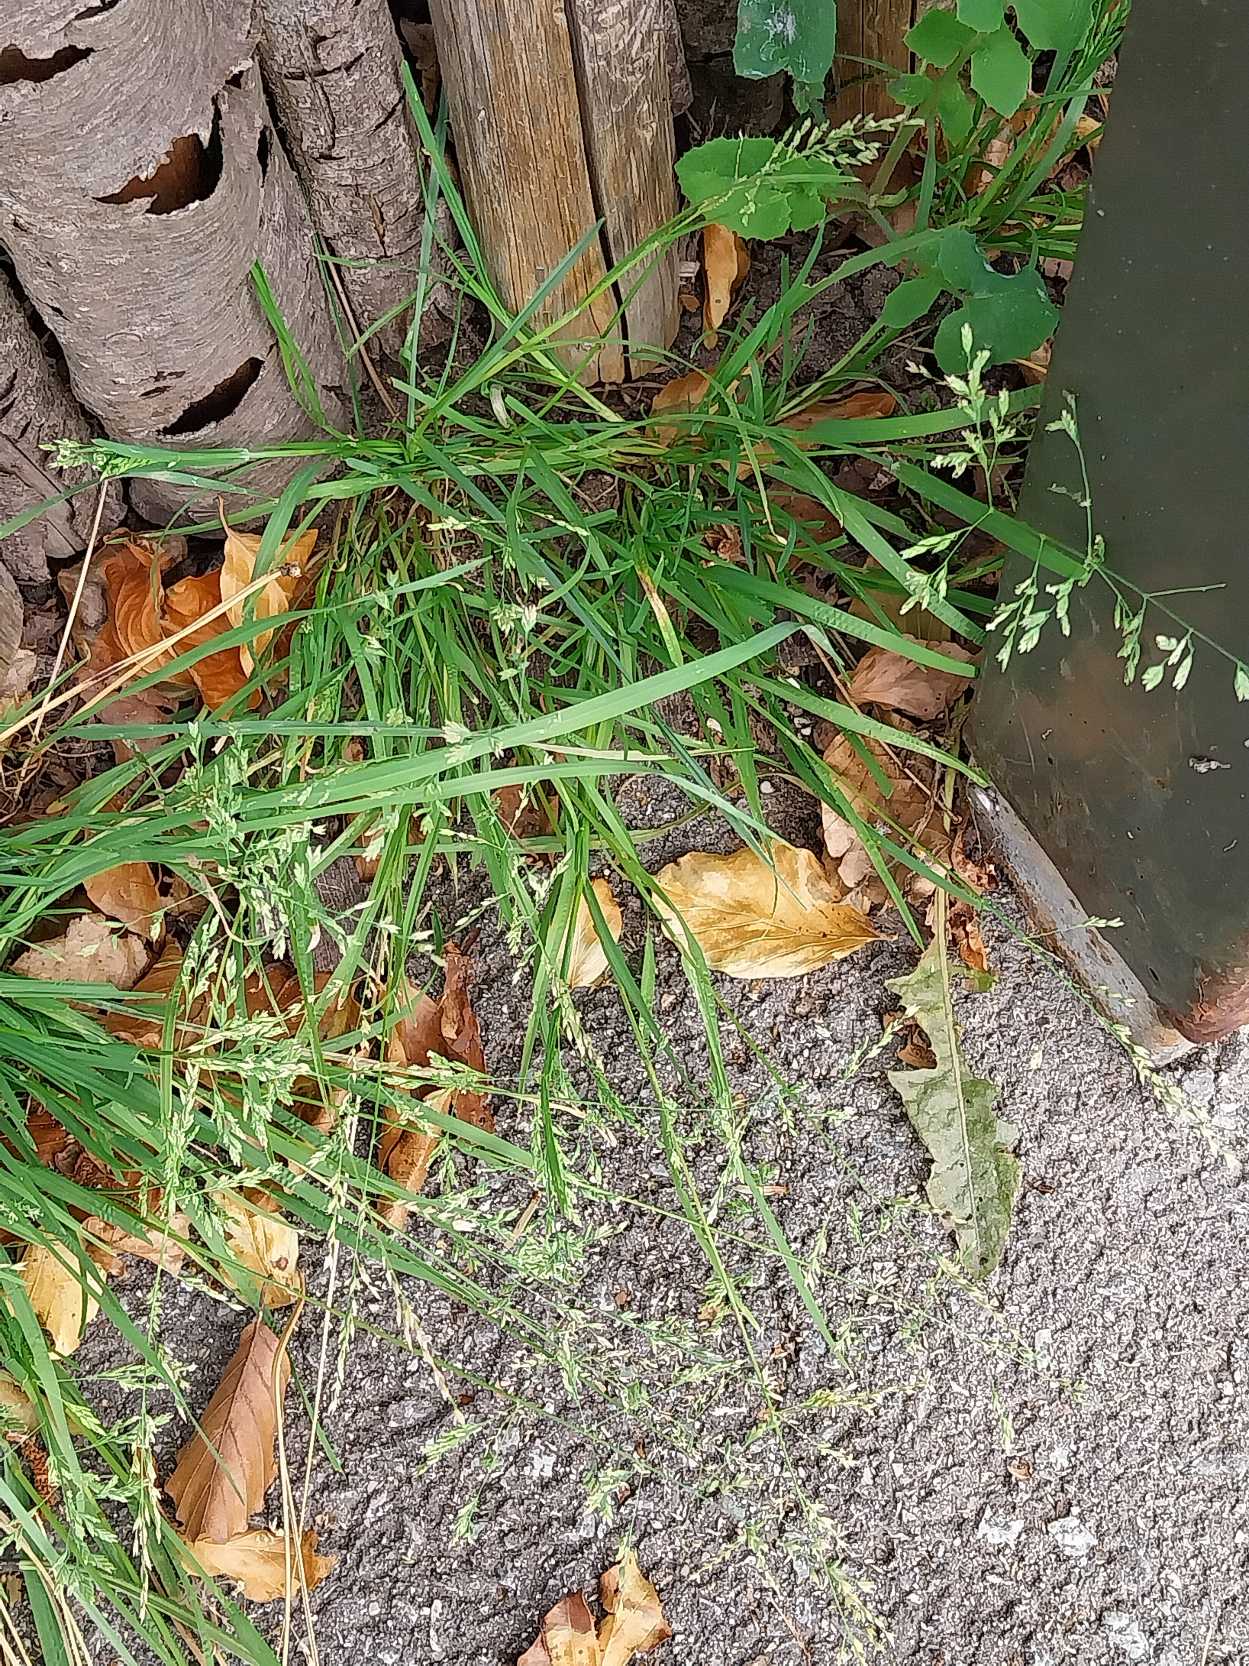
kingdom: Plantae
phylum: Tracheophyta
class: Liliopsida
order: Poales
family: Poaceae
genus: Poa
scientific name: Poa annua
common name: Enårig rapgræs
